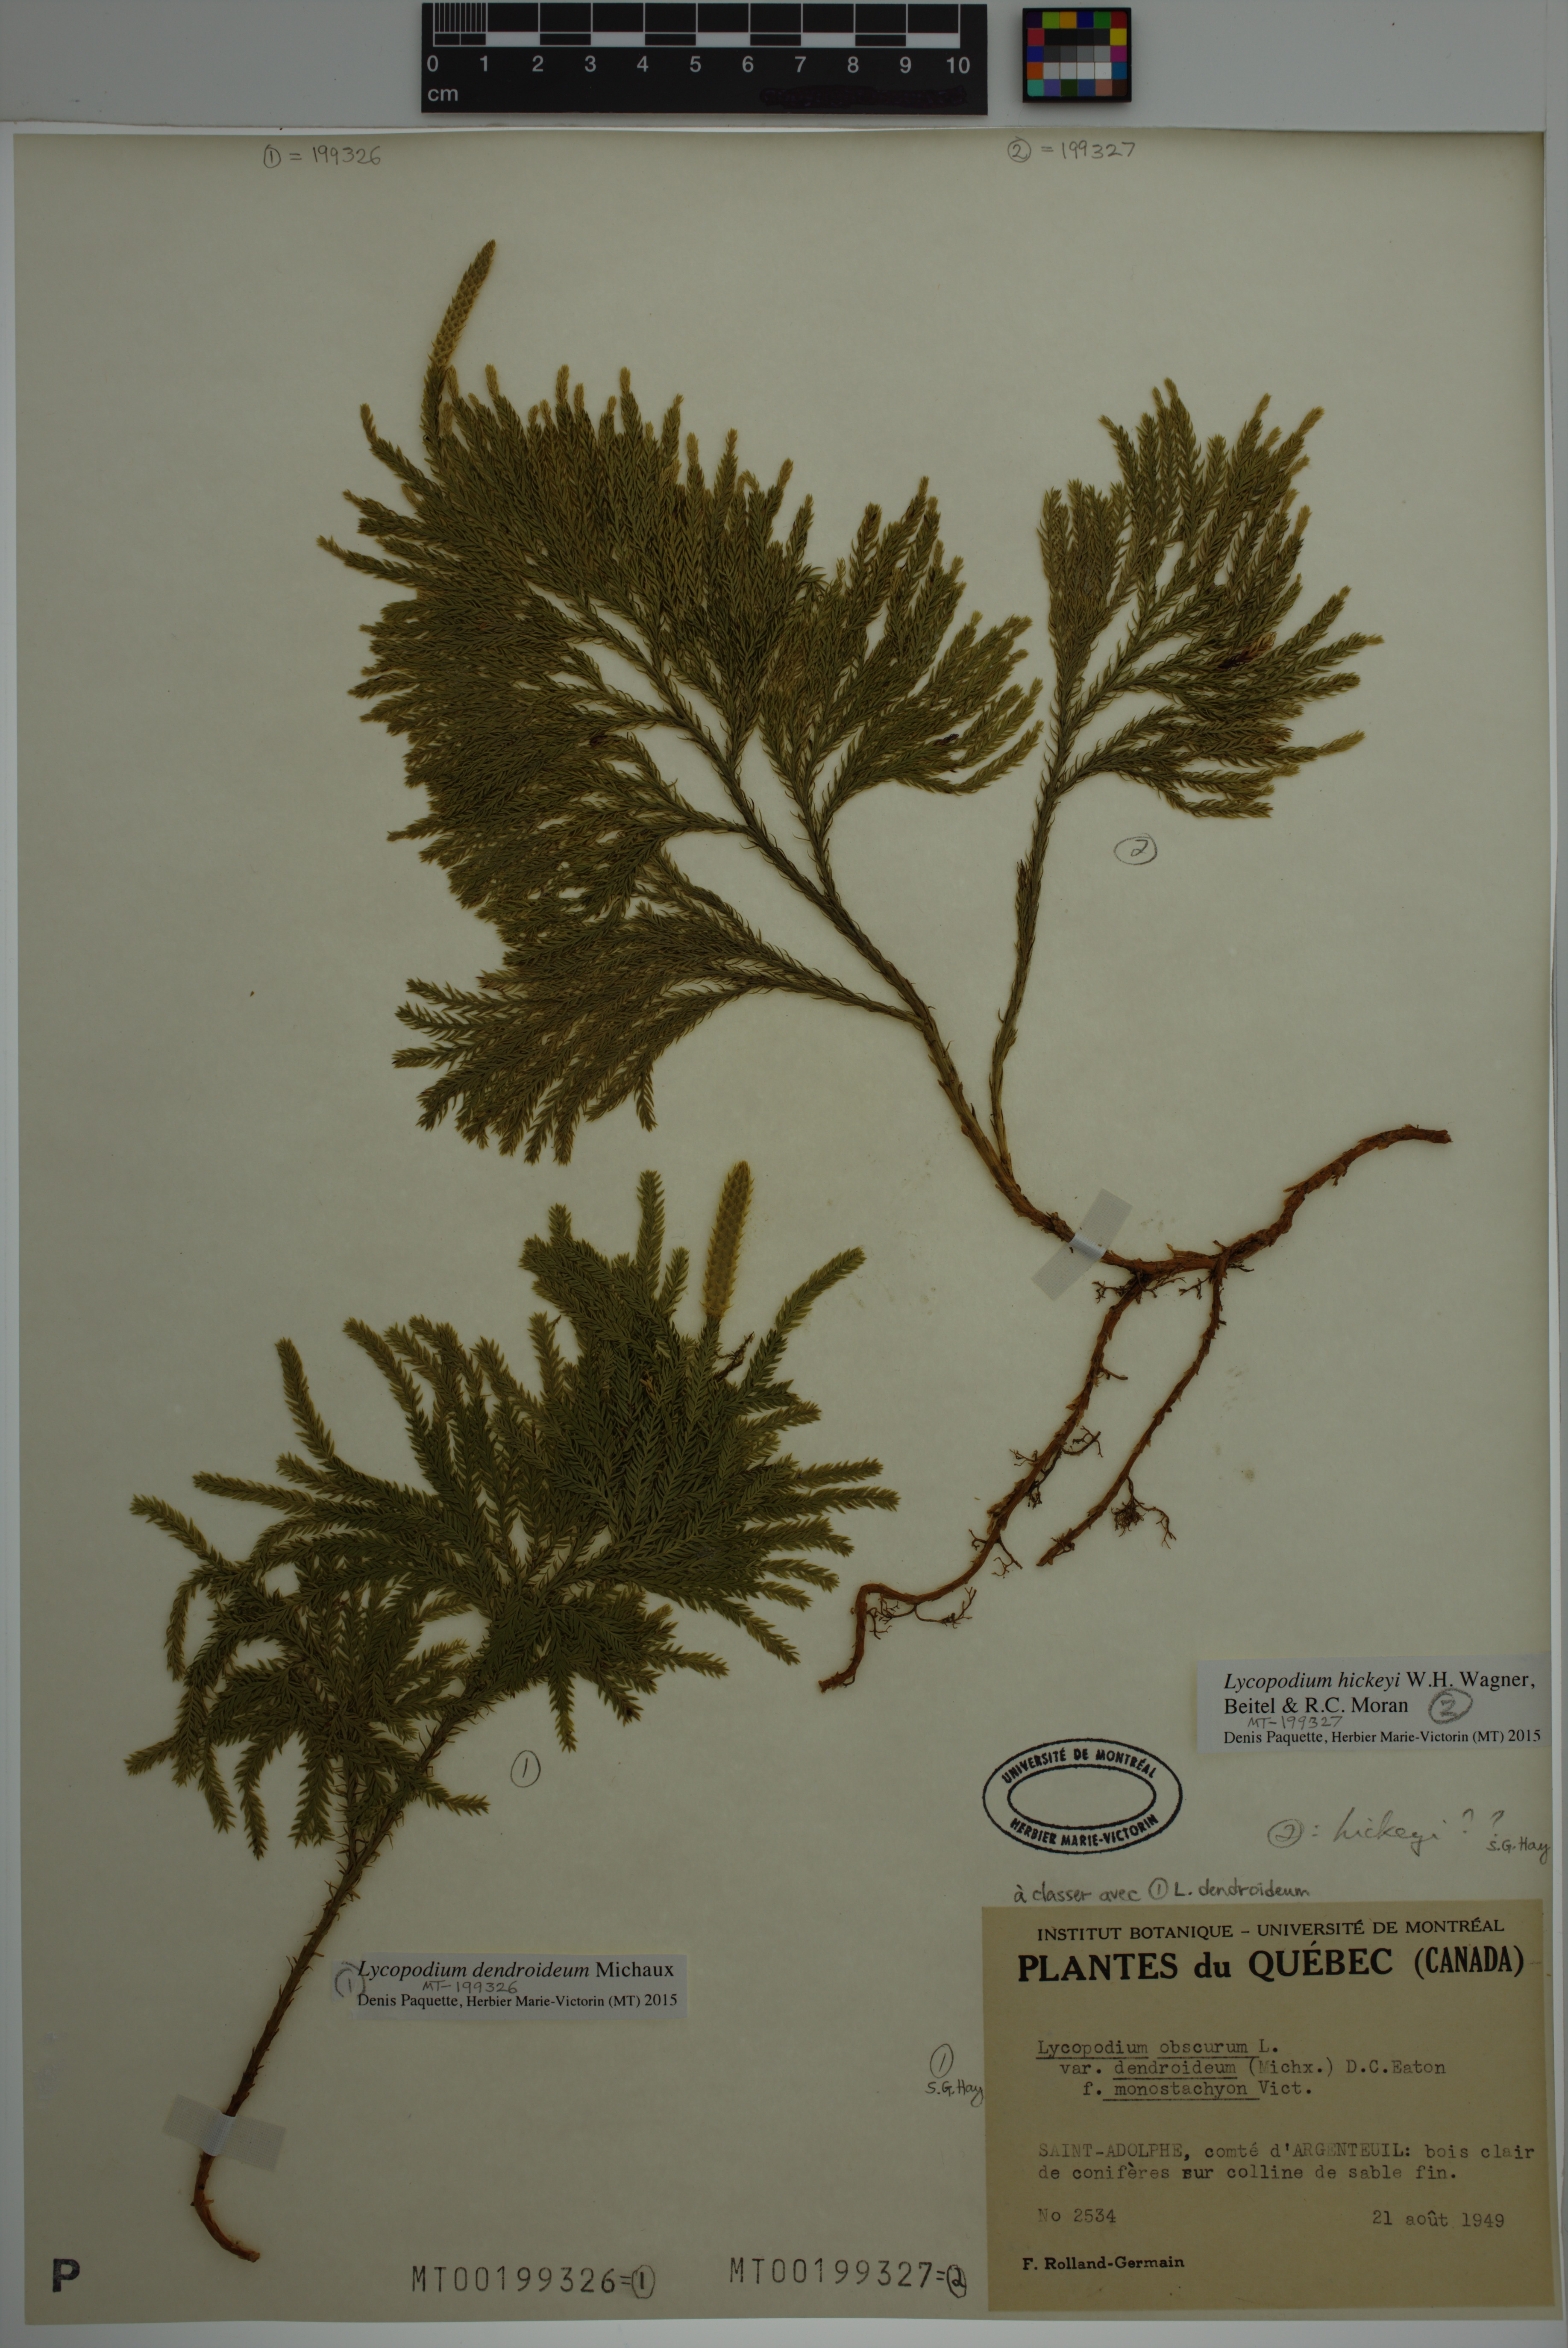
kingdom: Plantae
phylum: Tracheophyta
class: Lycopodiopsida
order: Lycopodiales
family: Lycopodiaceae
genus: Dendrolycopodium
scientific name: Dendrolycopodium dendroideum
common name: Northern tree-clubmoss
